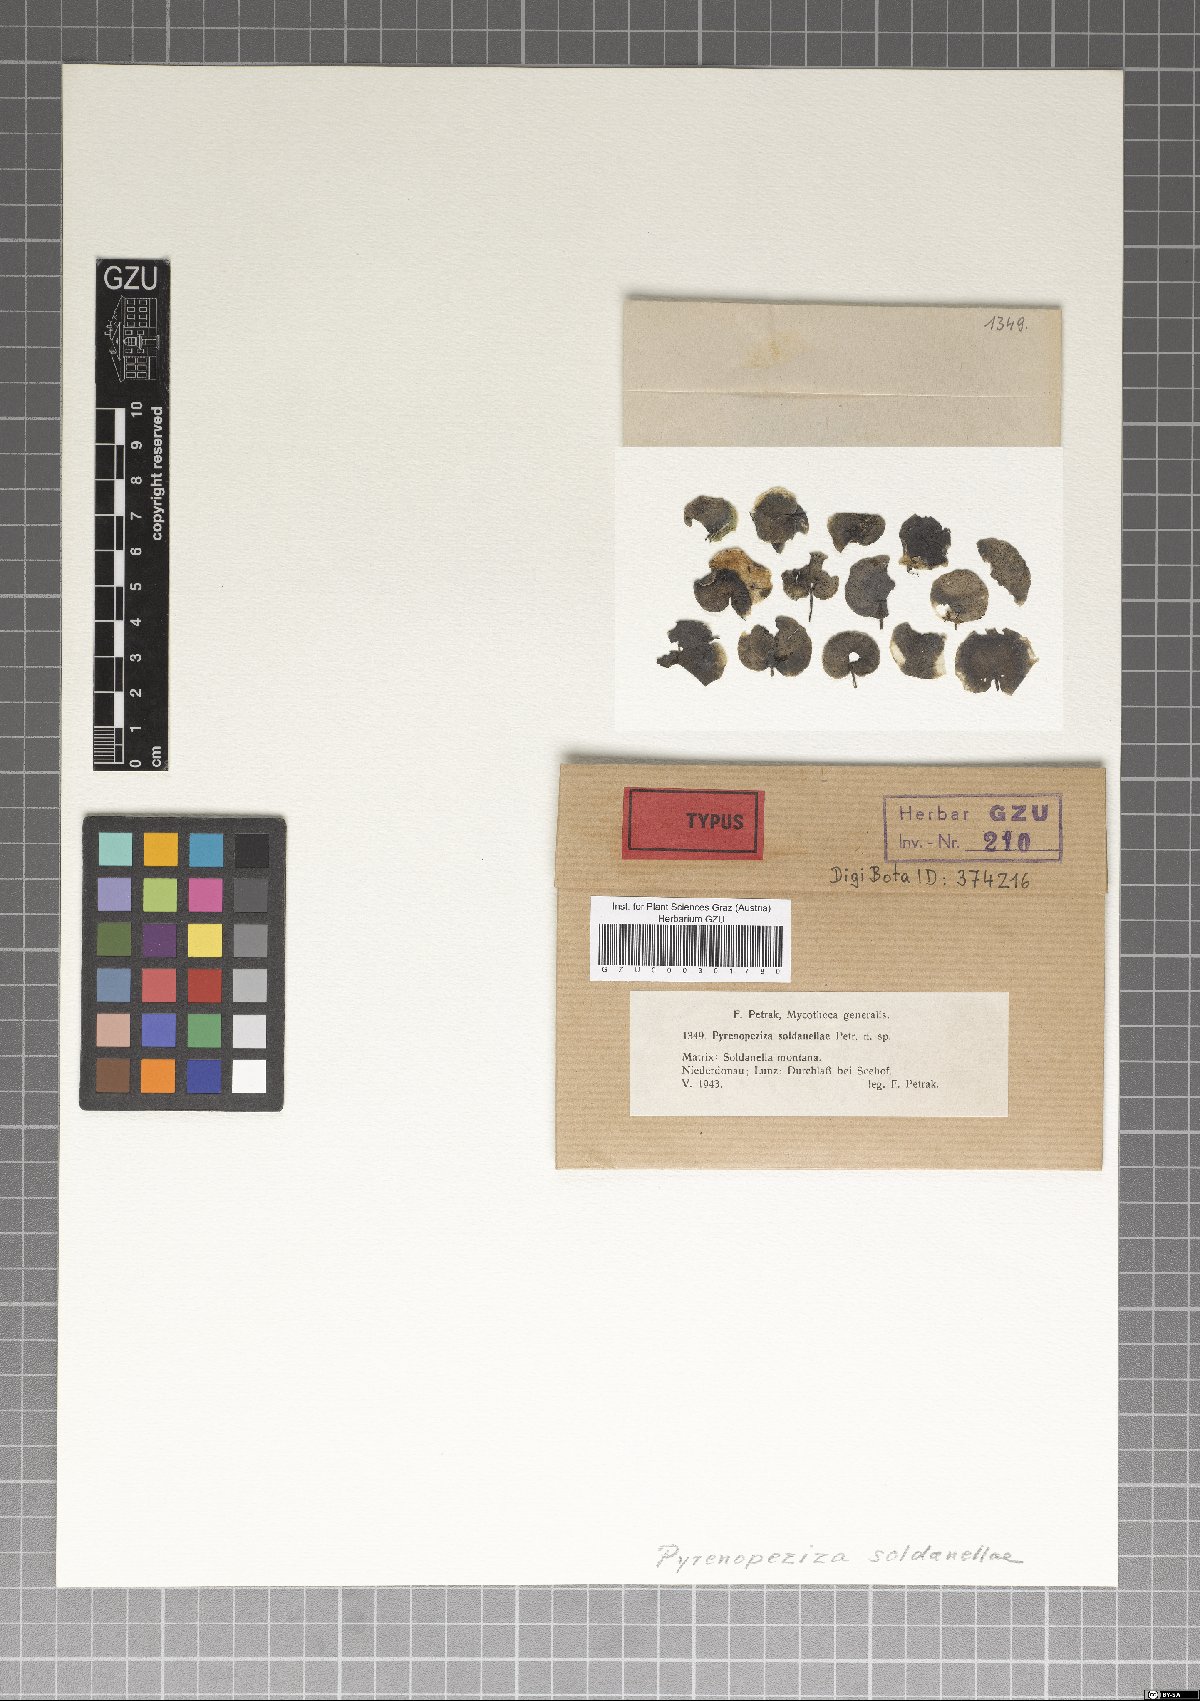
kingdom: Fungi
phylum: Ascomycota
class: Leotiomycetes
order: Helotiales
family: Ploettnerulaceae
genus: Pyrenopeziza
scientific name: Pyrenopeziza soldanellae
